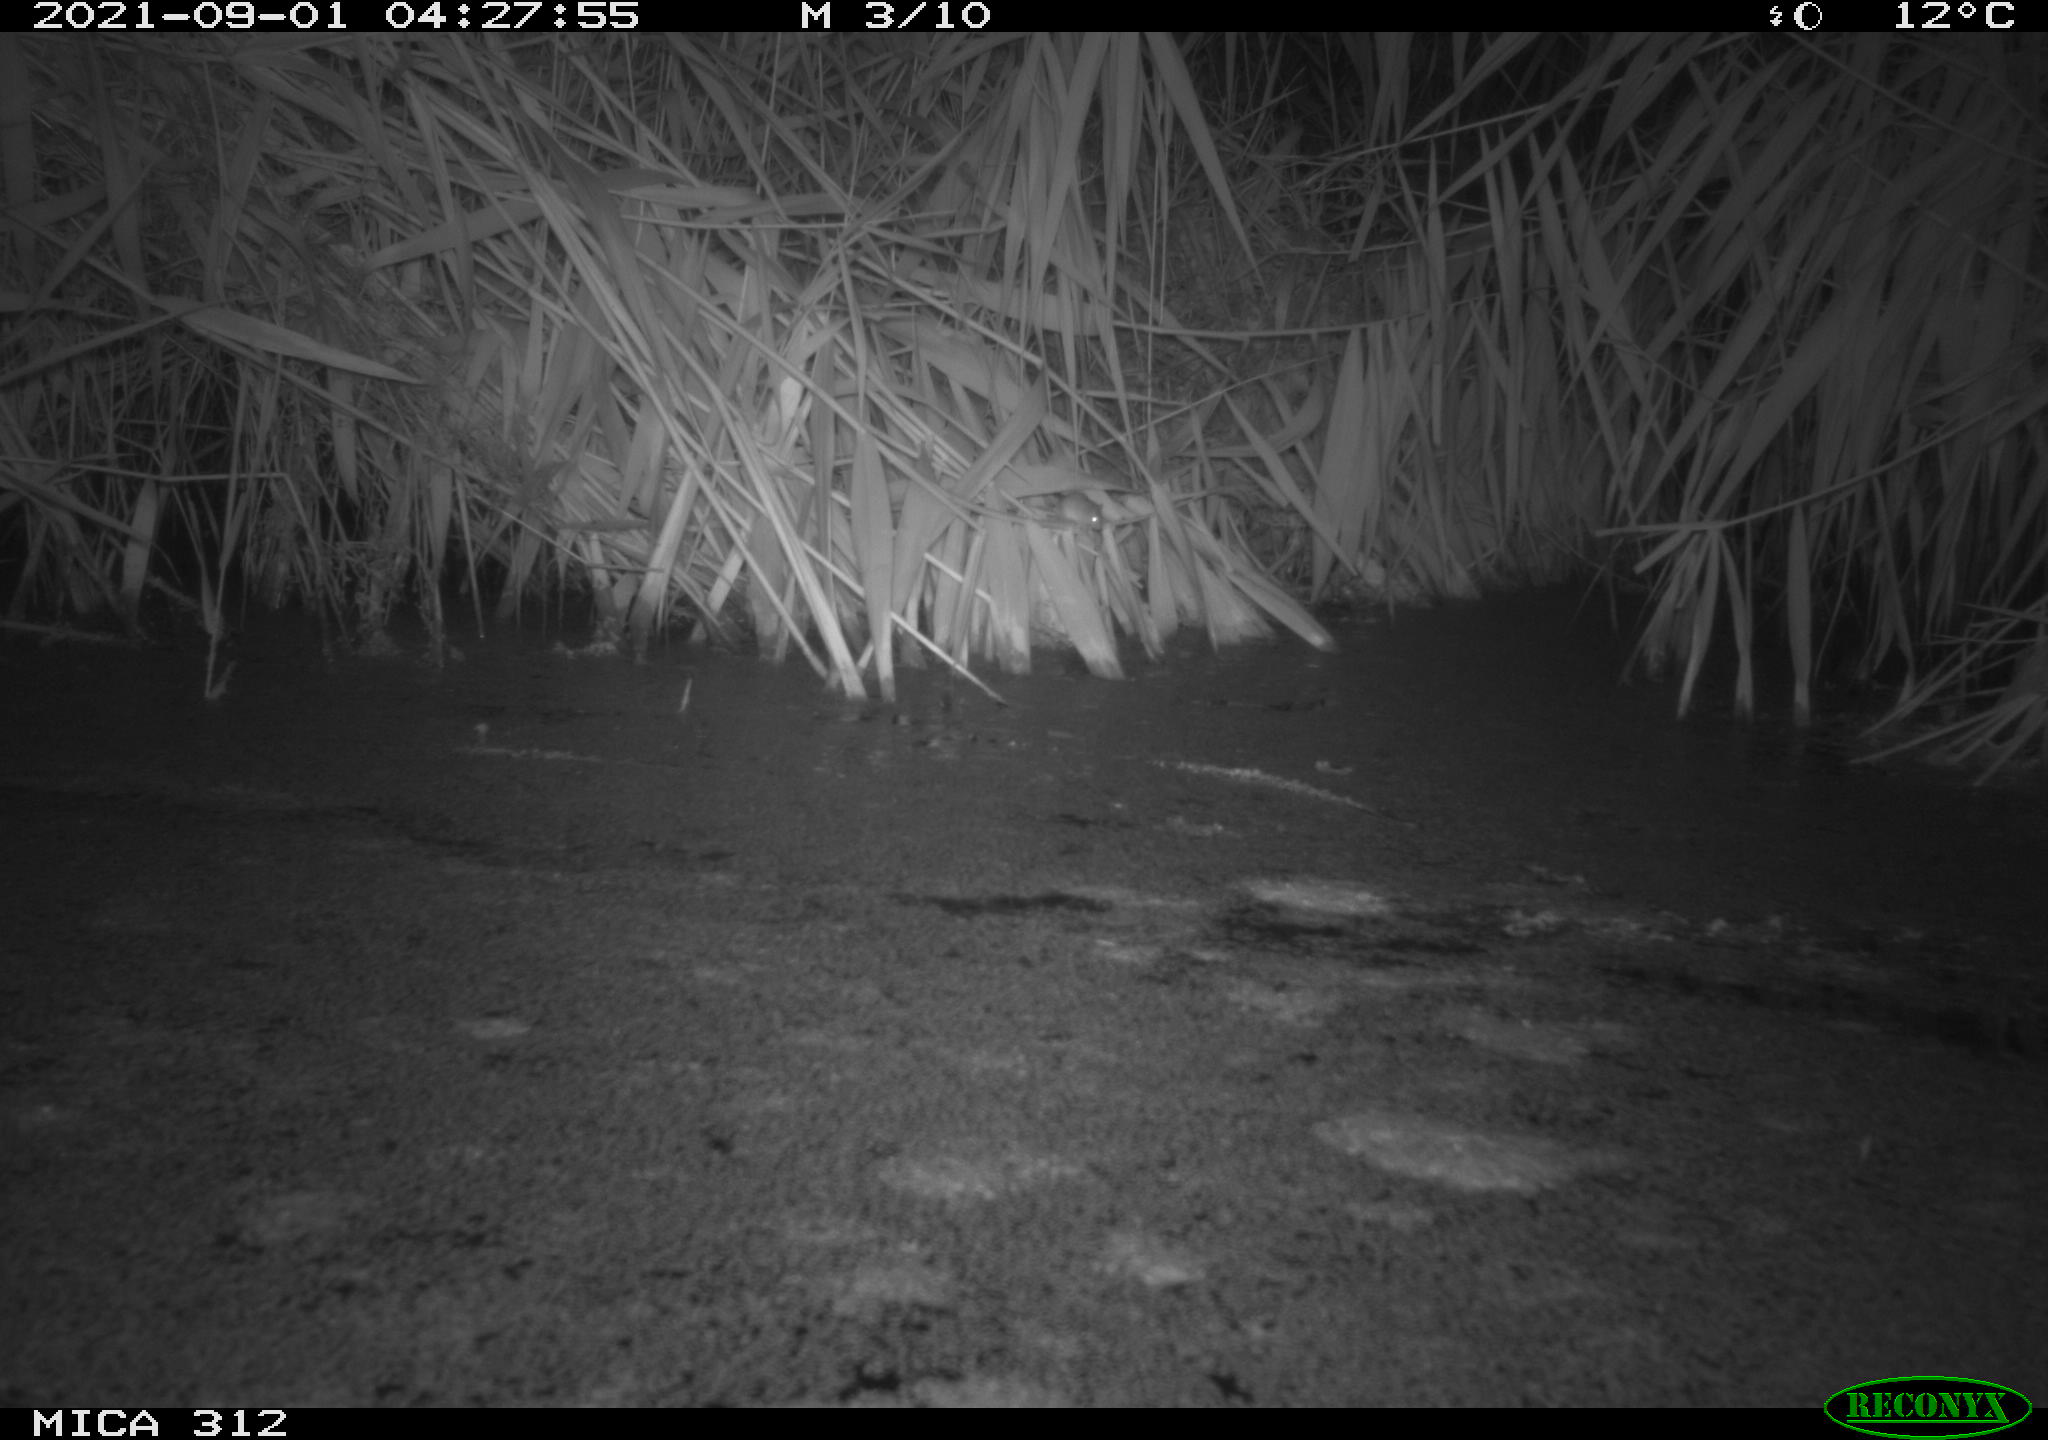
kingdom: Animalia
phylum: Chordata
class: Mammalia
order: Rodentia
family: Muridae
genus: Rattus
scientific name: Rattus norvegicus
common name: Brown rat
